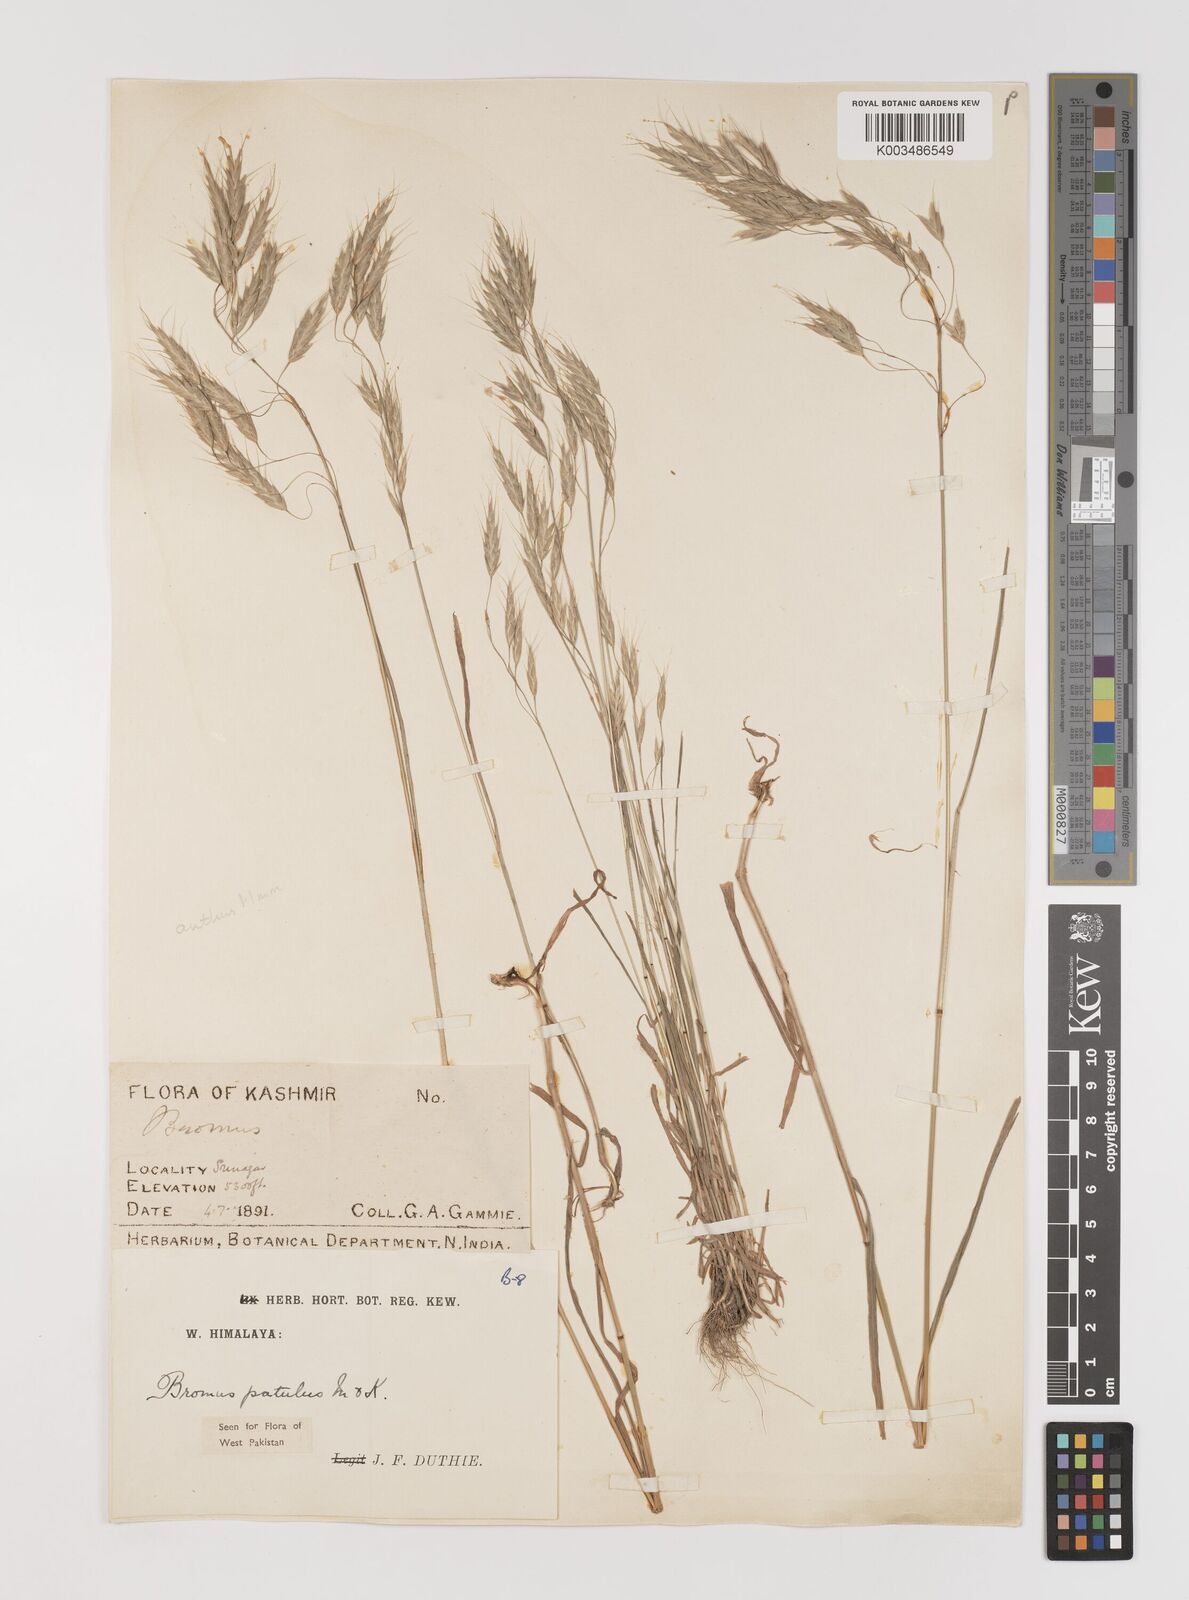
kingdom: Plantae
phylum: Tracheophyta
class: Liliopsida
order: Poales
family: Poaceae
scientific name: Poaceae
